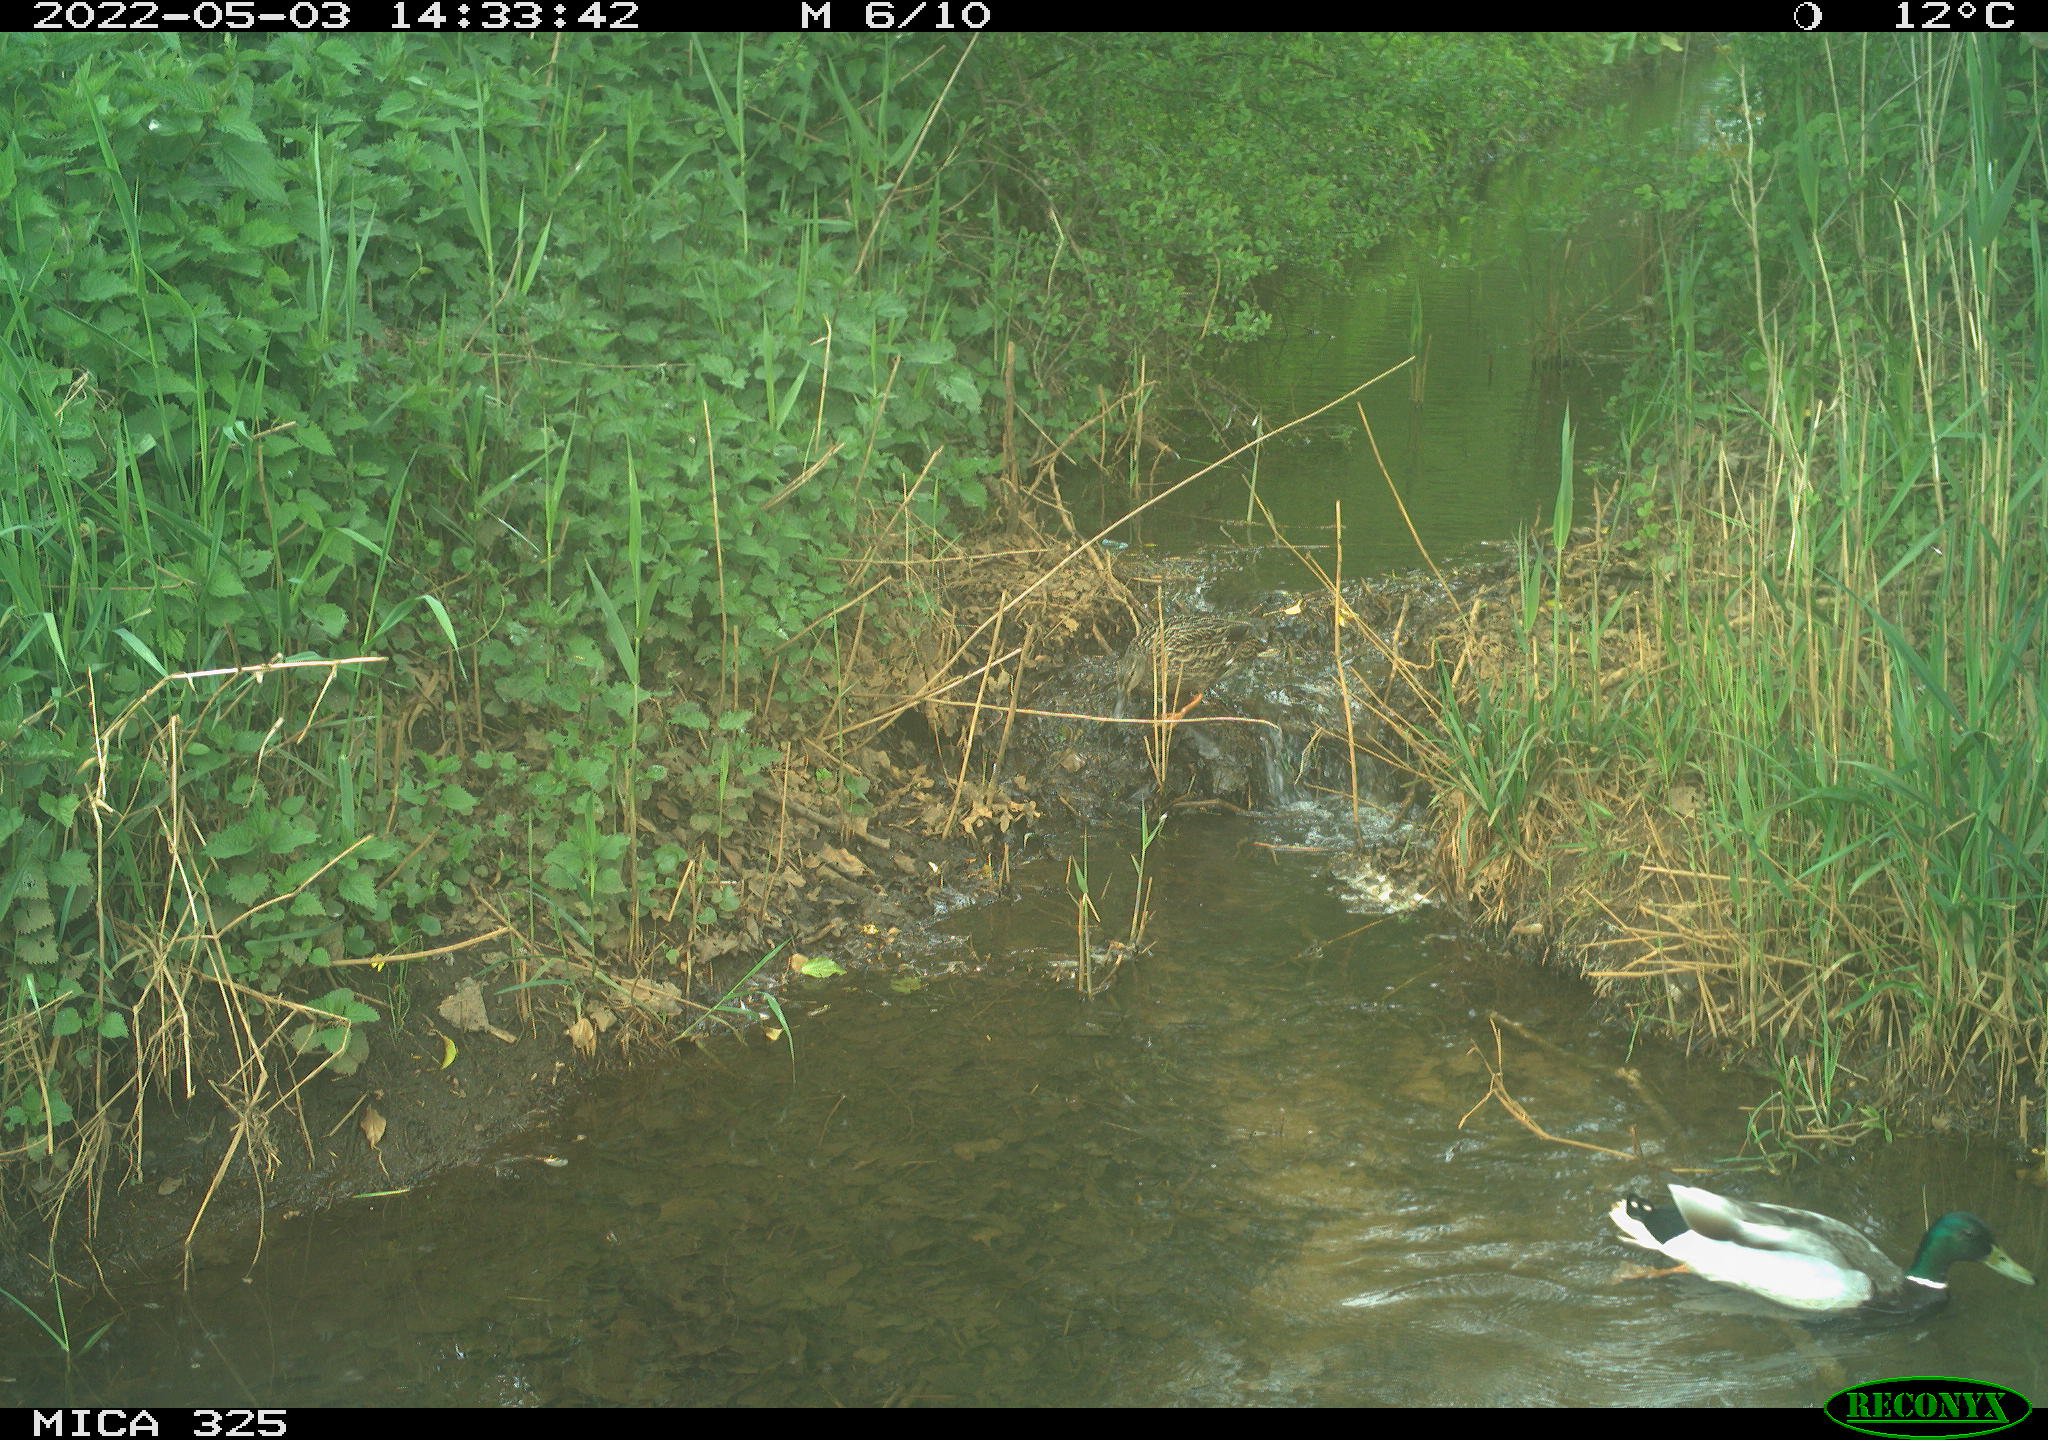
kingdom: Animalia
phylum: Chordata
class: Aves
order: Anseriformes
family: Anatidae
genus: Anas
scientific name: Anas platyrhynchos
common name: Mallard
